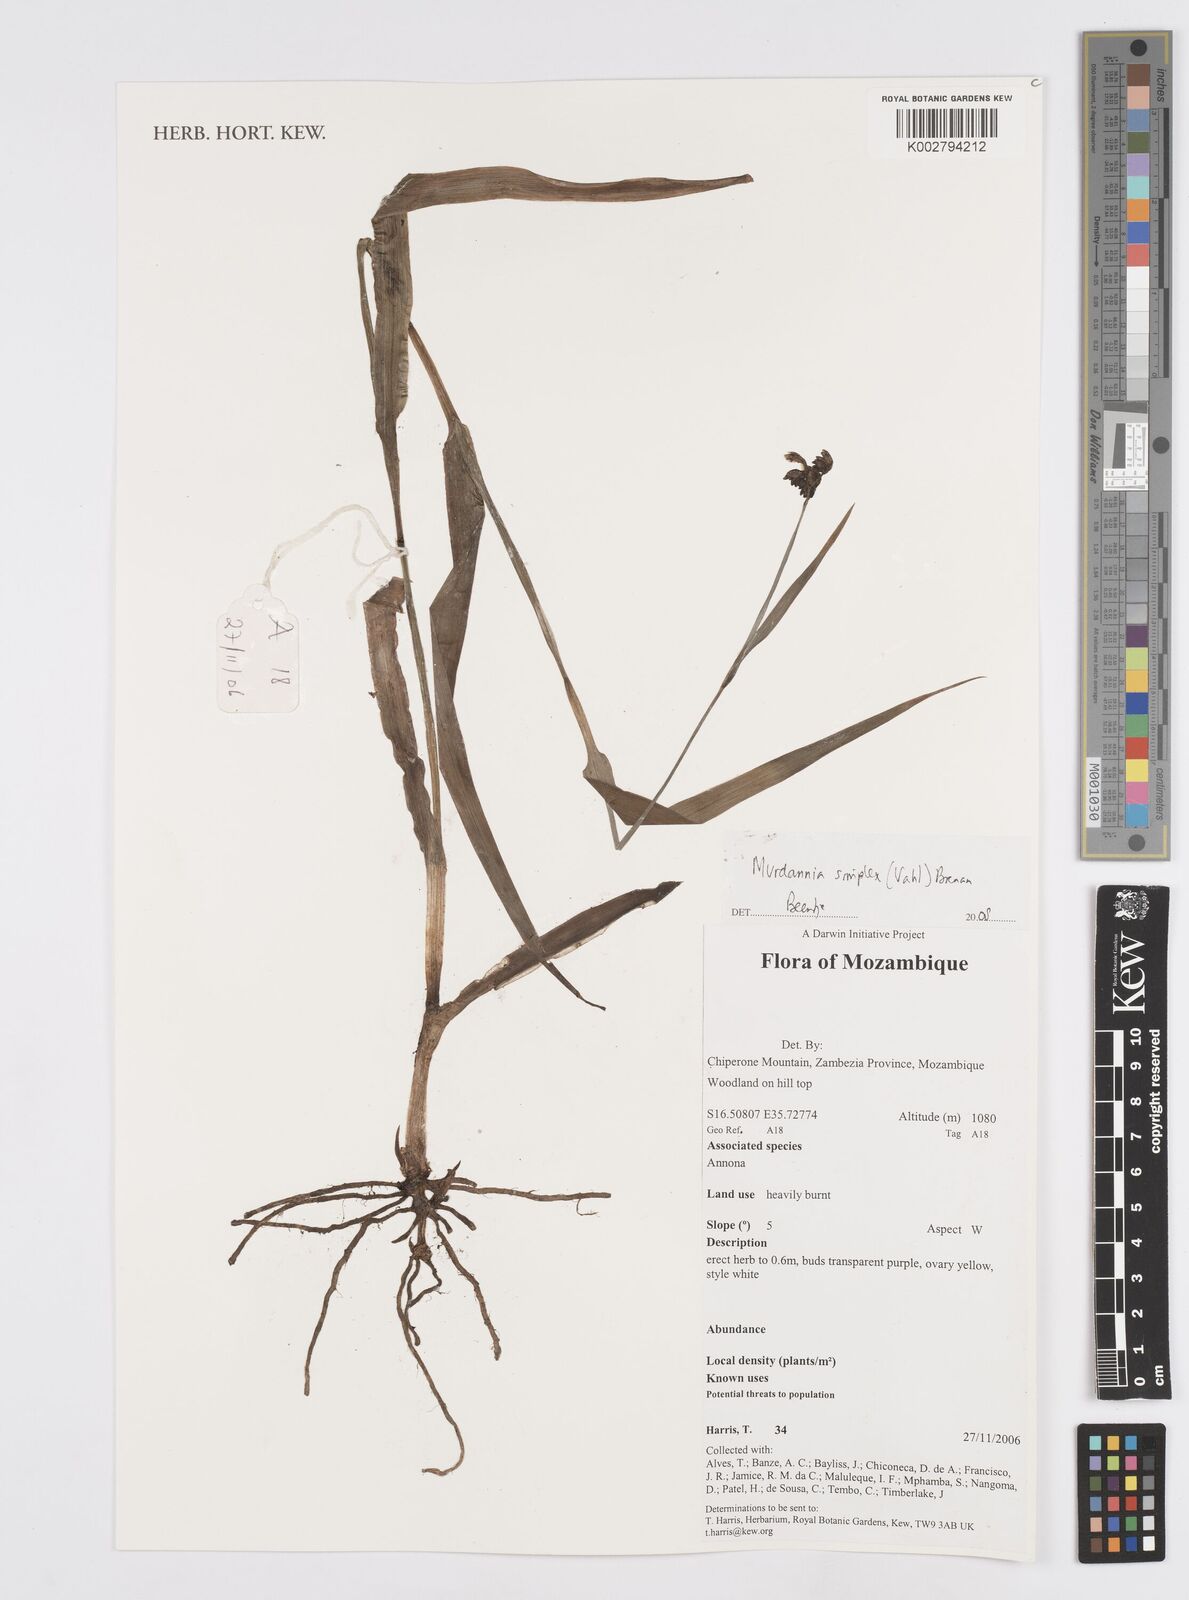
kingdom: Plantae
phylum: Tracheophyta
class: Liliopsida
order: Commelinales
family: Commelinaceae
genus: Murdannia
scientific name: Murdannia simplex
